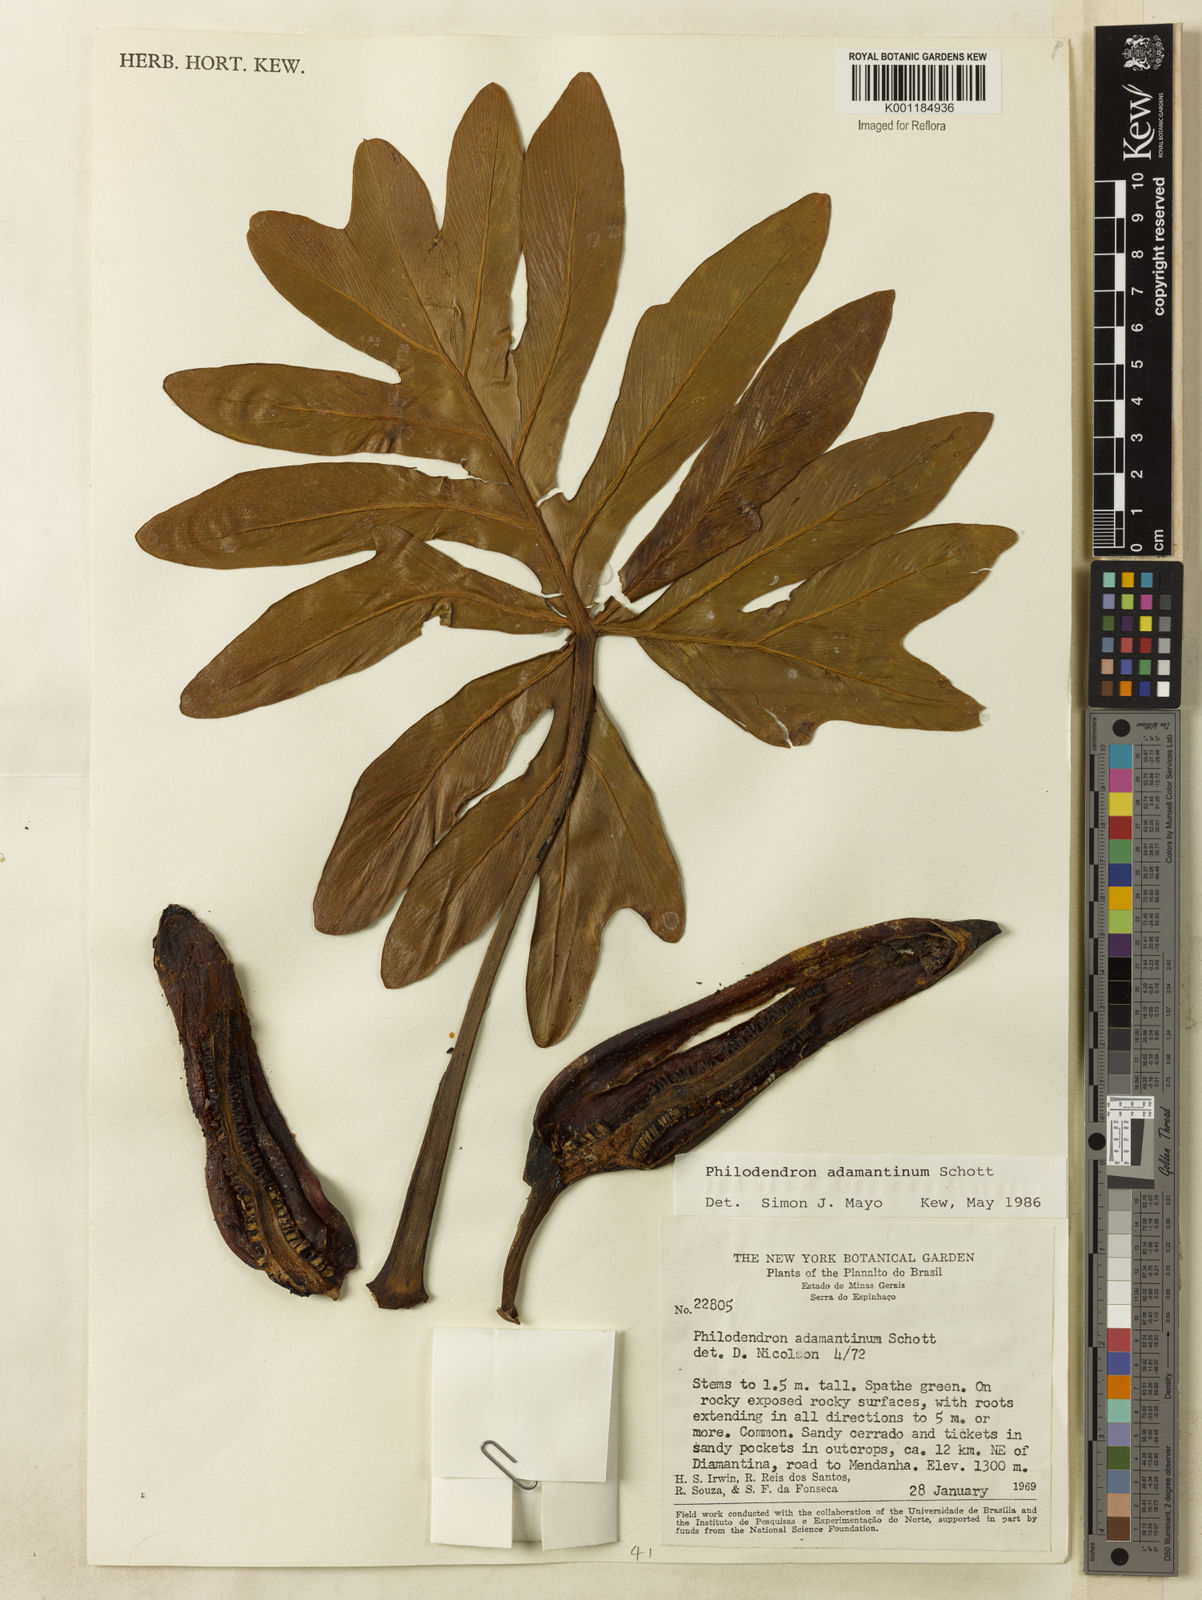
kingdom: Plantae
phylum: Tracheophyta
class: Liliopsida
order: Alismatales
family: Araceae
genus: Thaumatophyllum
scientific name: Thaumatophyllum adamantinum
